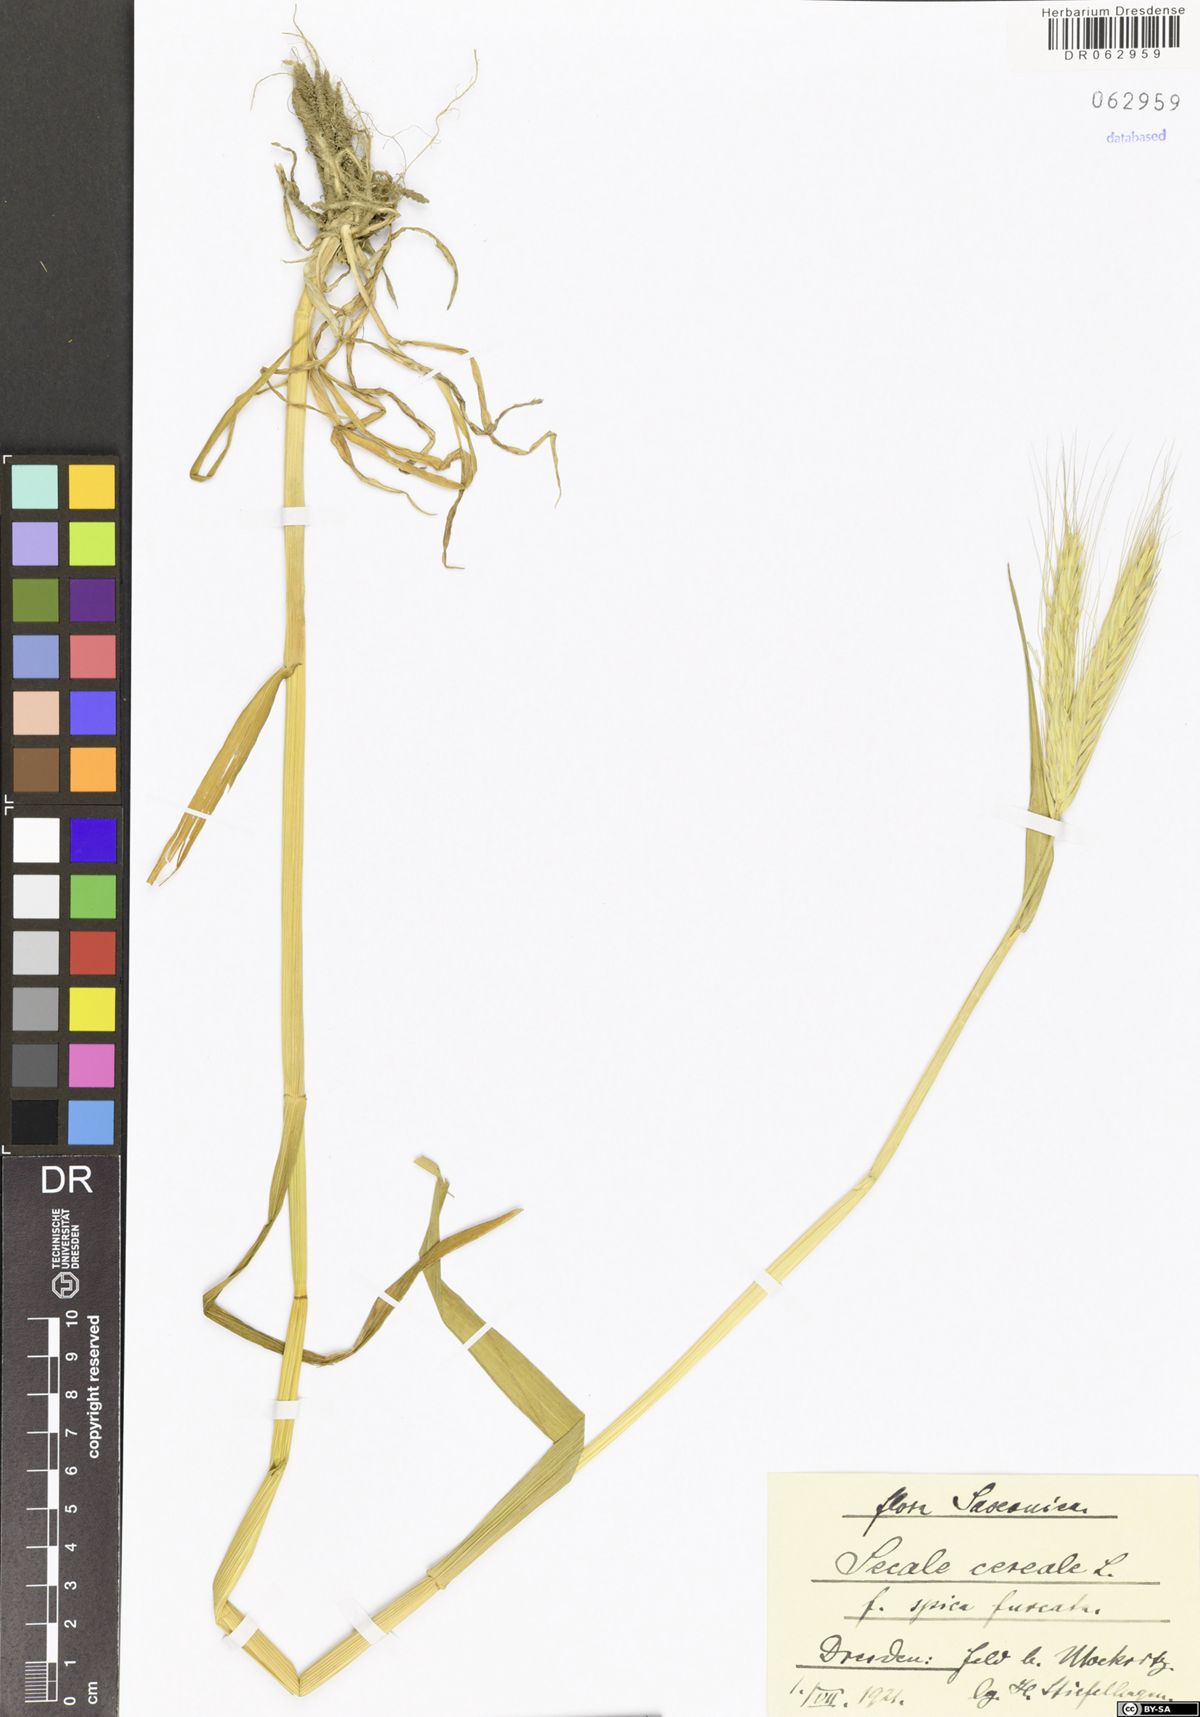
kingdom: Plantae
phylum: Tracheophyta
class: Liliopsida
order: Poales
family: Poaceae
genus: Secale
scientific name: Secale cereale
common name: Rye
